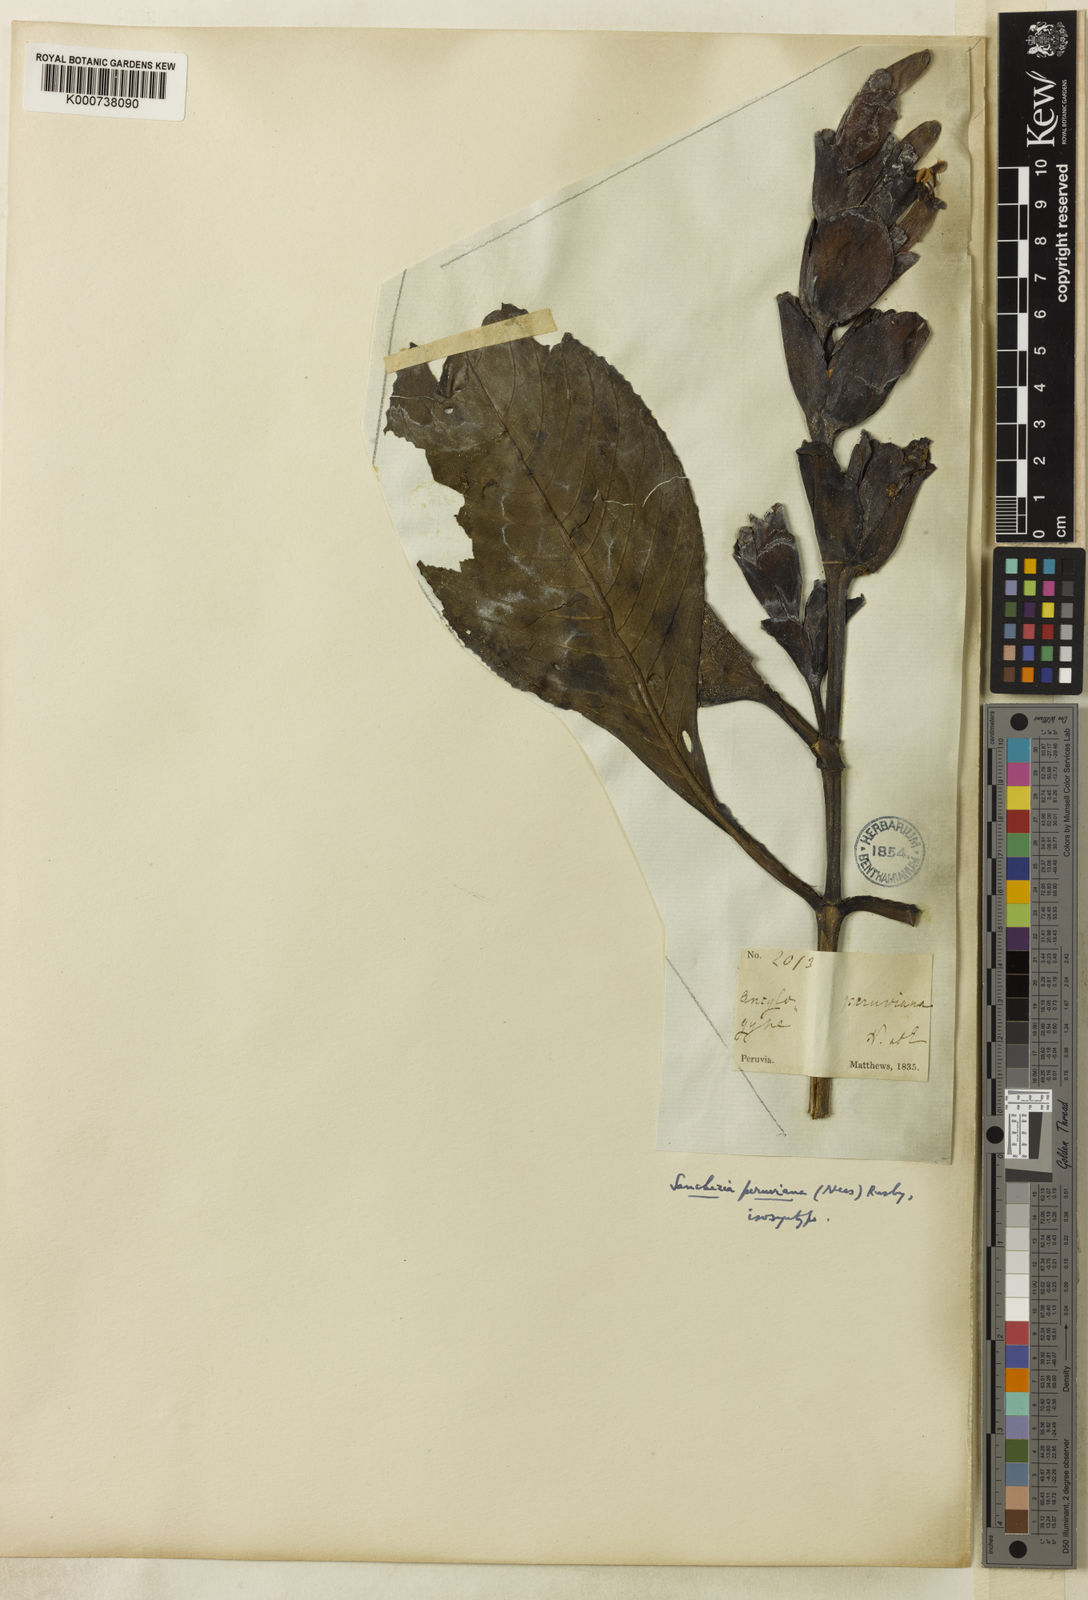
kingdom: Plantae
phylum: Tracheophyta
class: Magnoliopsida
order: Lamiales
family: Acanthaceae
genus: Sanchezia
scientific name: Sanchezia oblonga
